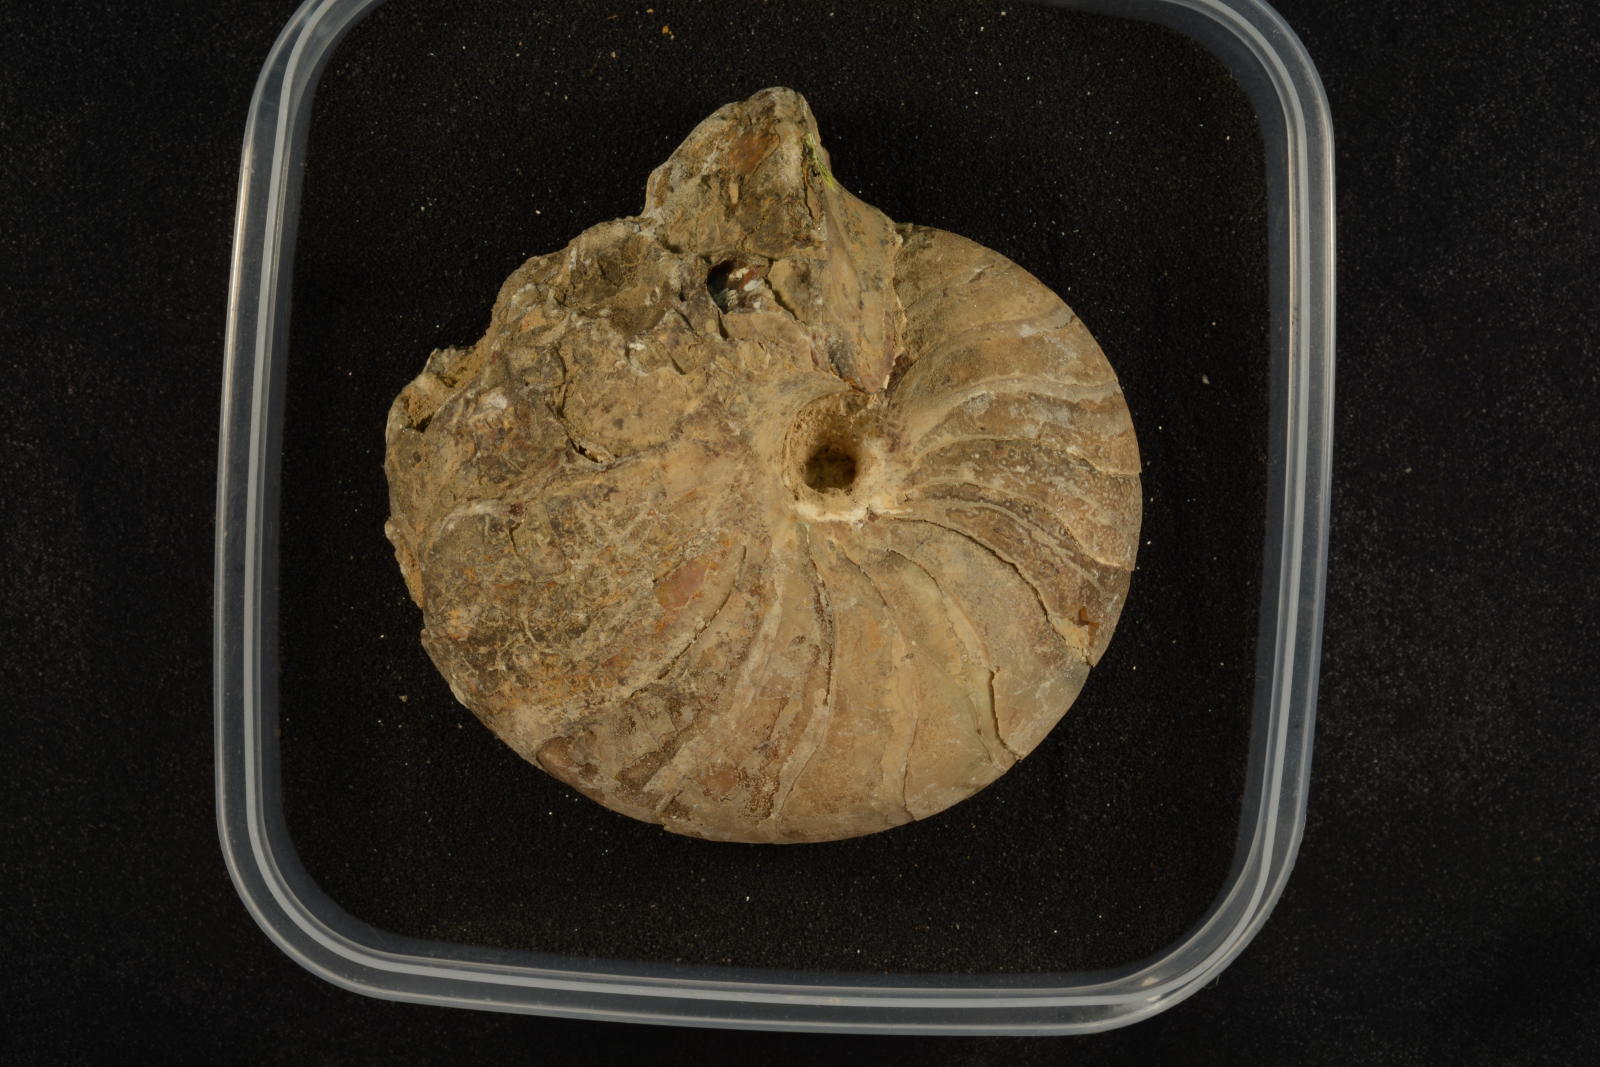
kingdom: Animalia
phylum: Mollusca
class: Cephalopoda
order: Nautilida
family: Cymatoceratidae
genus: Anglonautilus
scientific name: Anglonautilus catarinae
